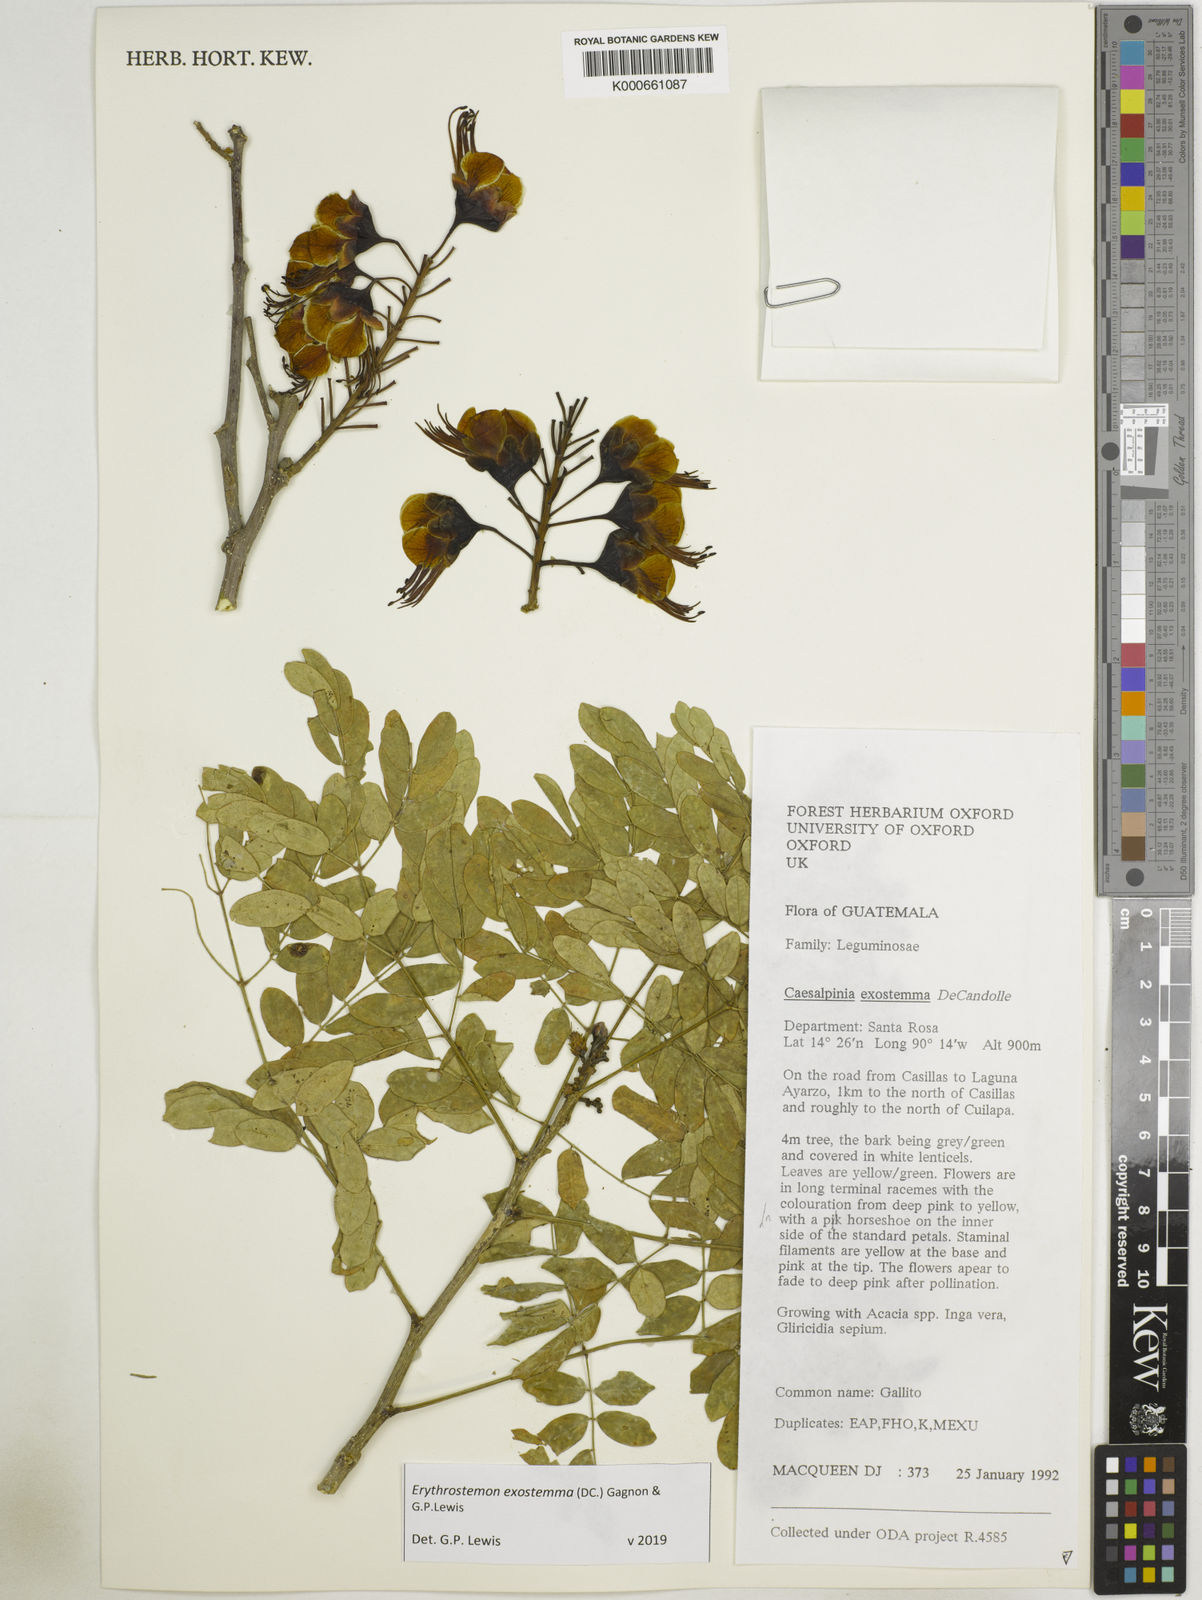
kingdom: Plantae
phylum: Tracheophyta
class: Magnoliopsida
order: Fabales
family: Fabaceae
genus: Erythrostemon
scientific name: Erythrostemon exostemma
